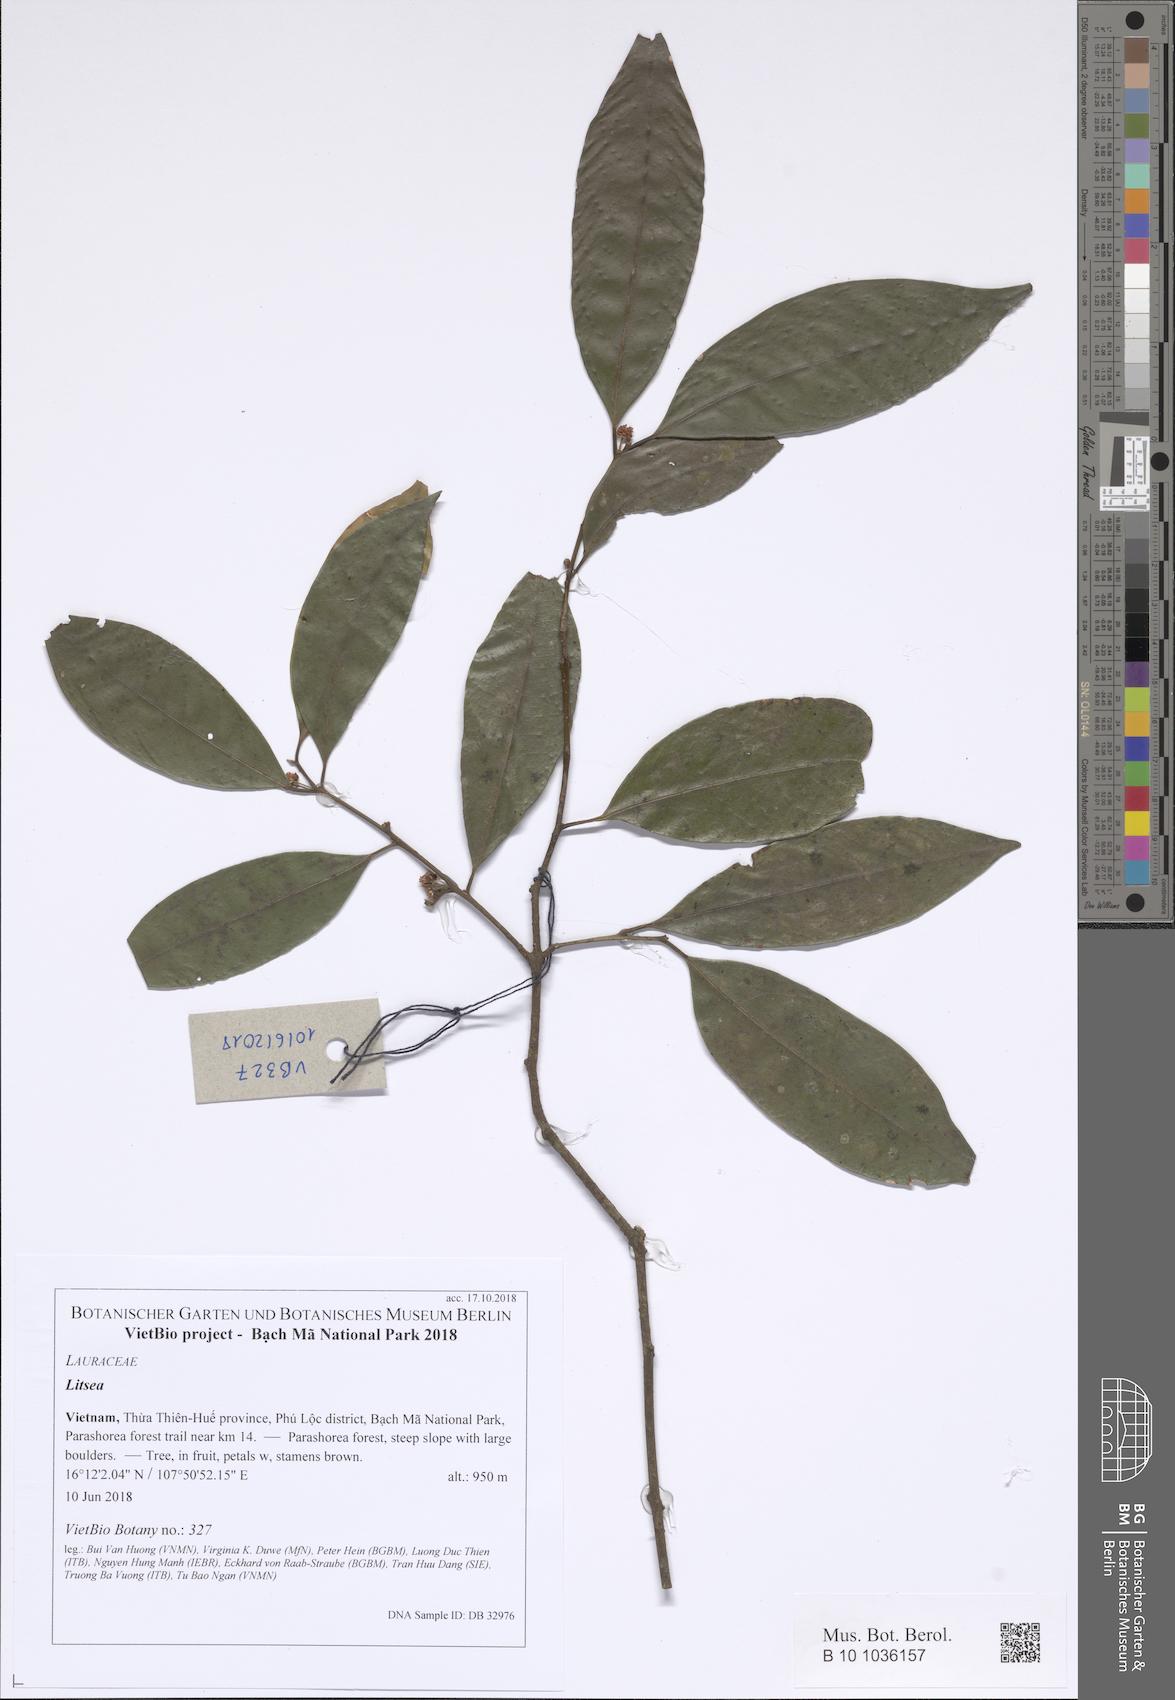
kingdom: Plantae
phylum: Tracheophyta
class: Magnoliopsida
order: Laurales
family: Lauraceae
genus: Litsea
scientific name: Litsea
